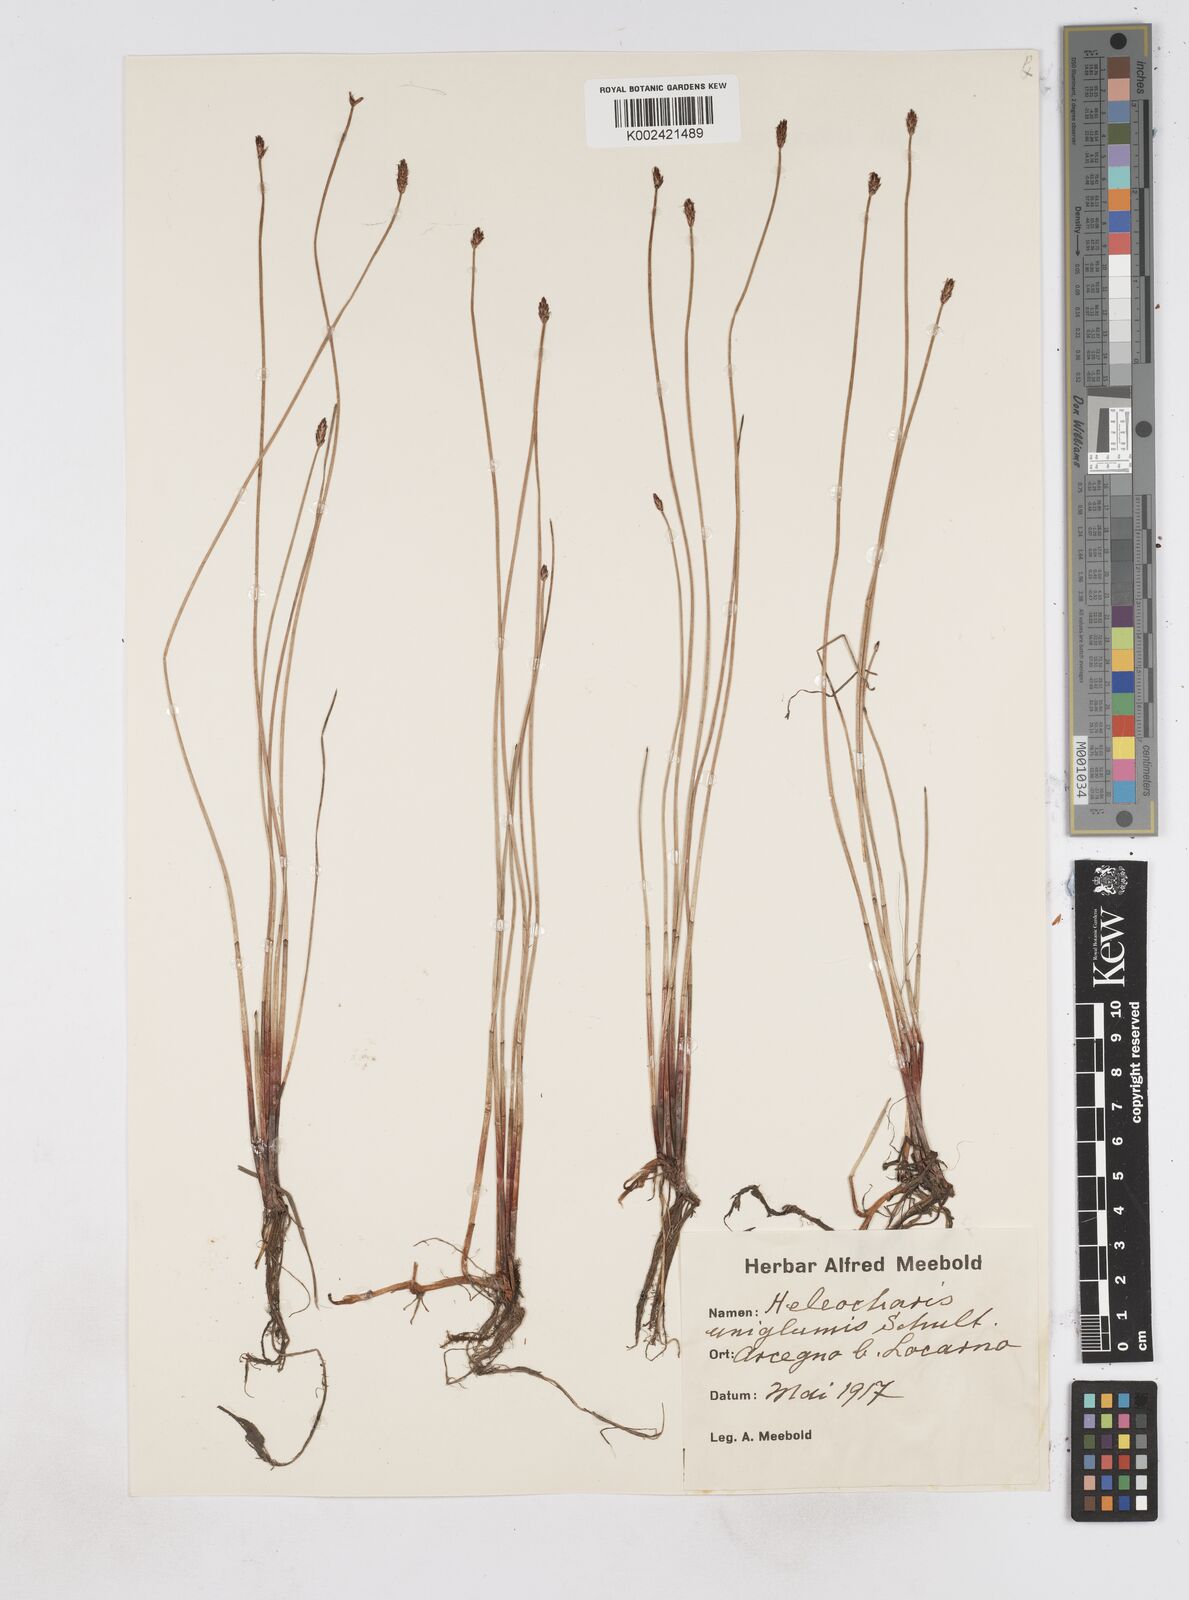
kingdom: Plantae
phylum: Tracheophyta
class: Liliopsida
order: Poales
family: Cyperaceae
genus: Eleocharis
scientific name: Eleocharis uniglumis
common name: Slender spike-rush
